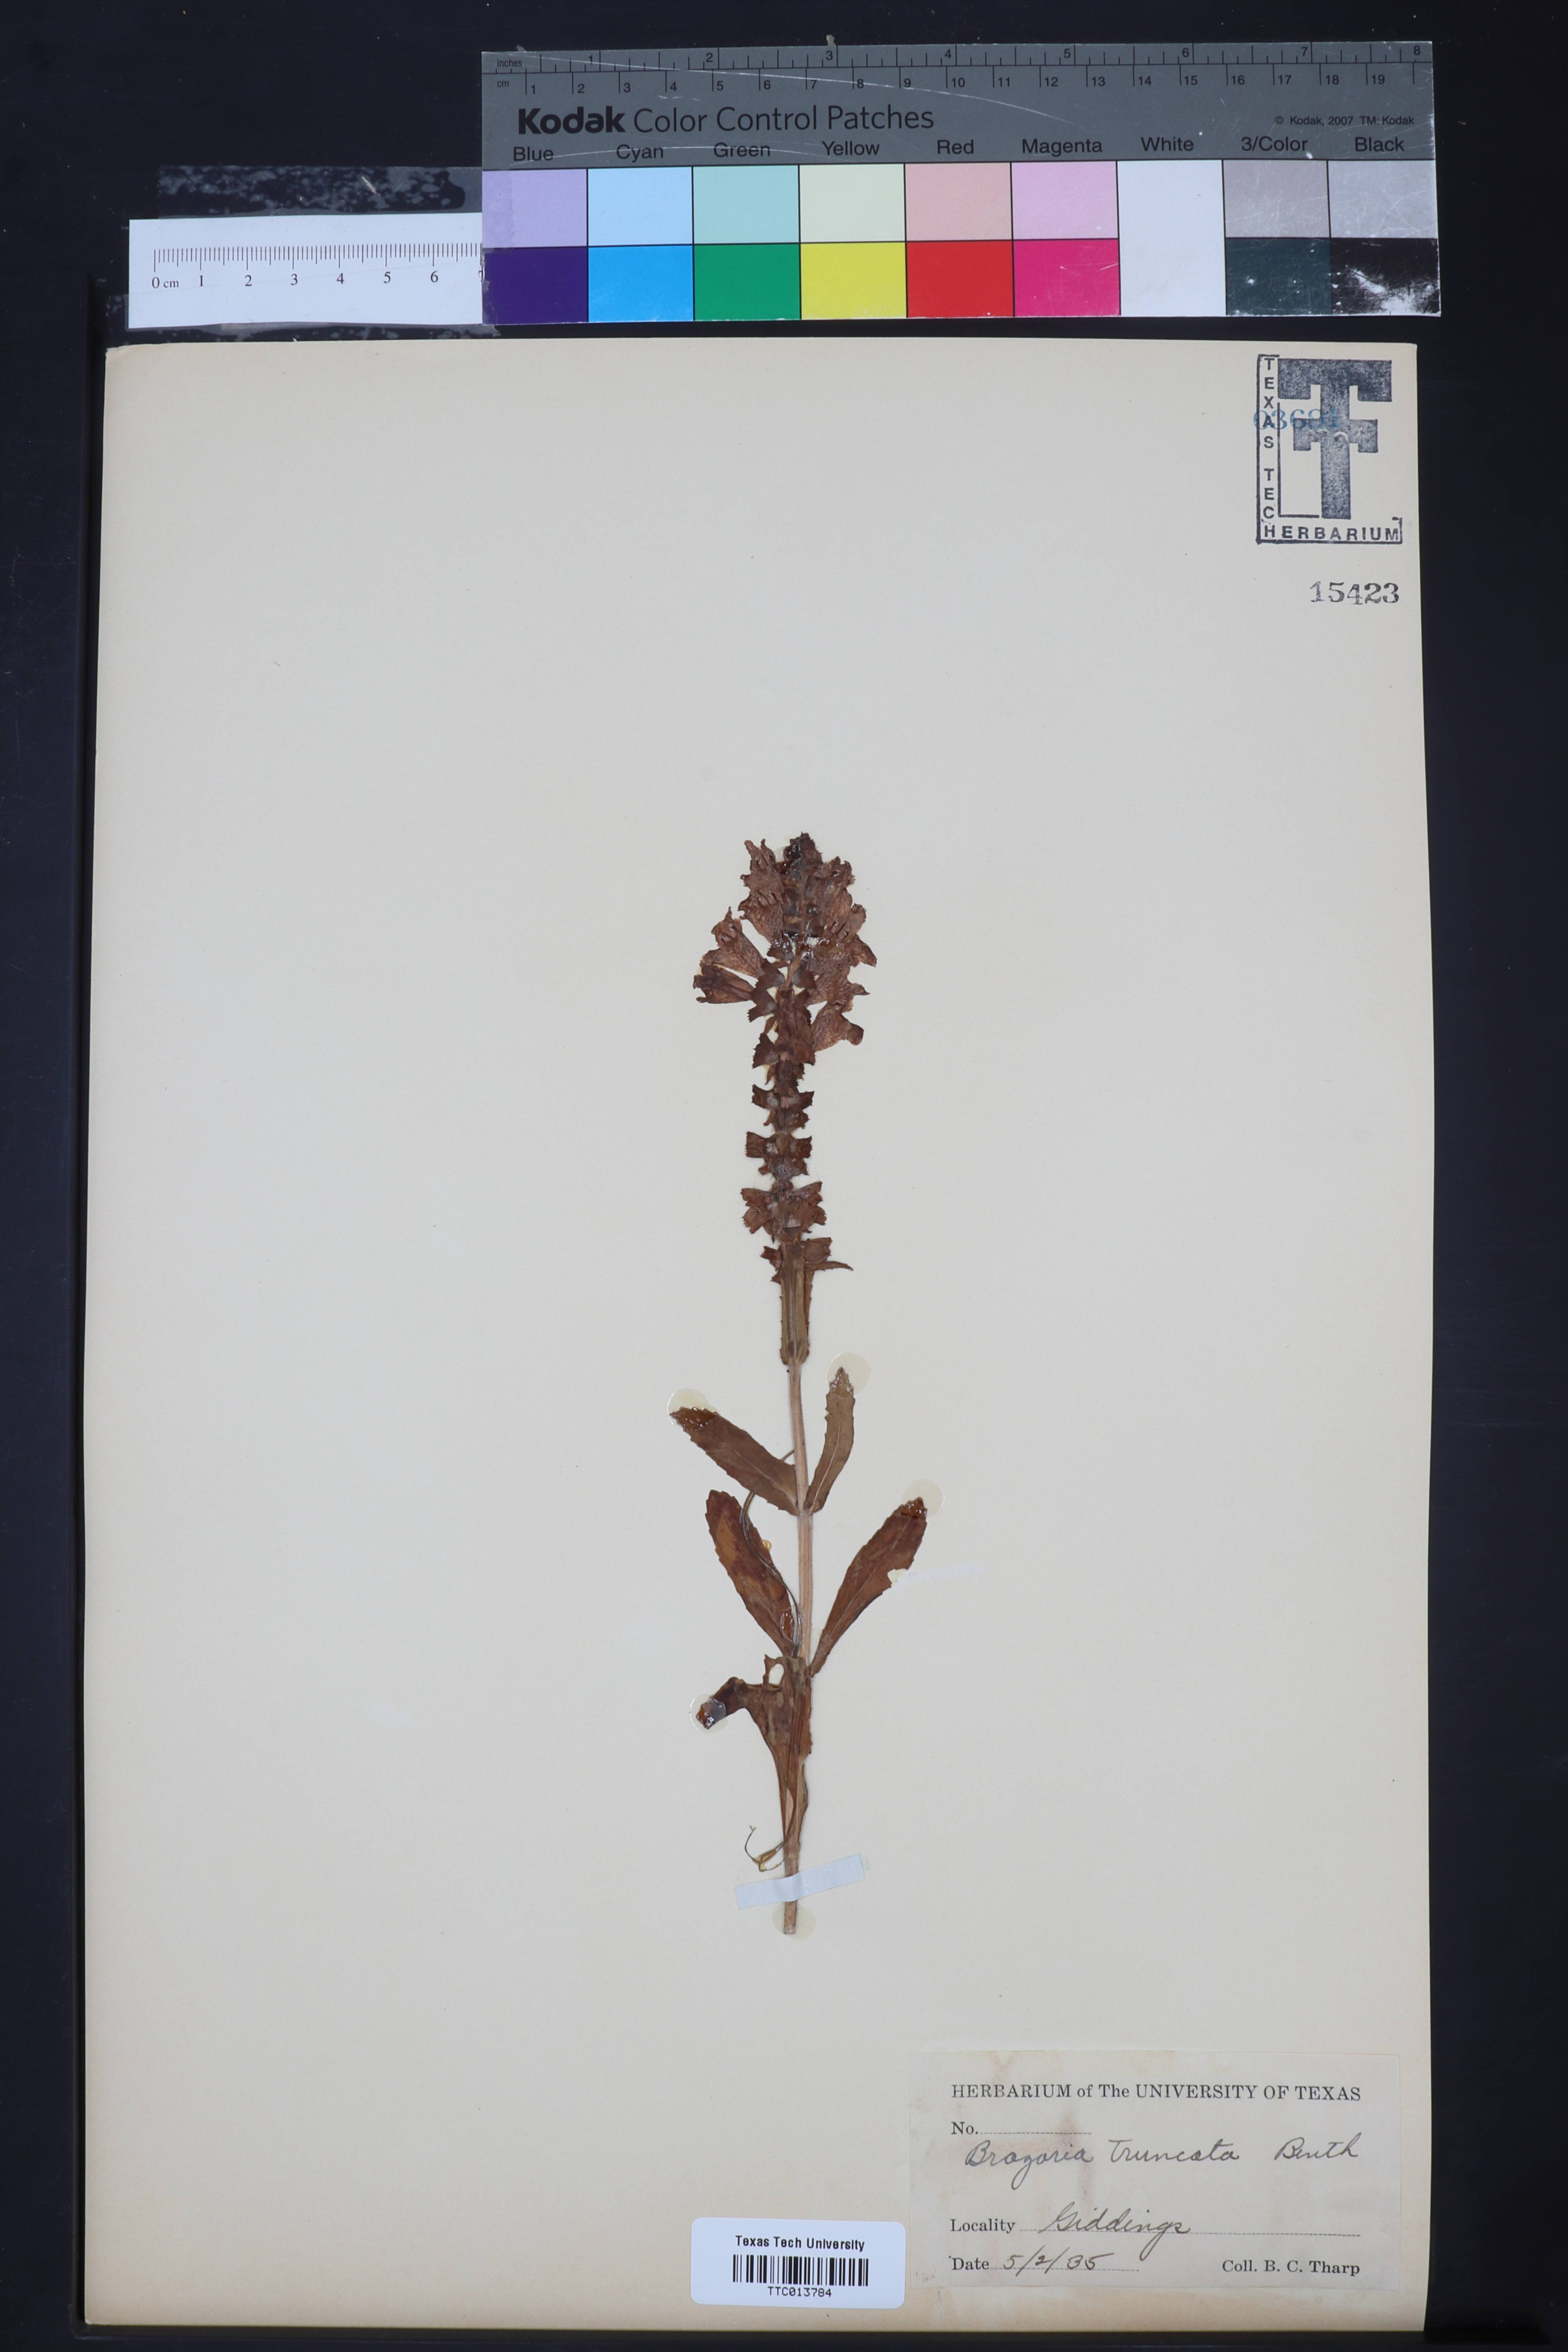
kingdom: Plantae
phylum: Tracheophyta
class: Magnoliopsida
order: Lamiales
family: Lamiaceae
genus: Brazoria
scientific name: Brazoria truncata
